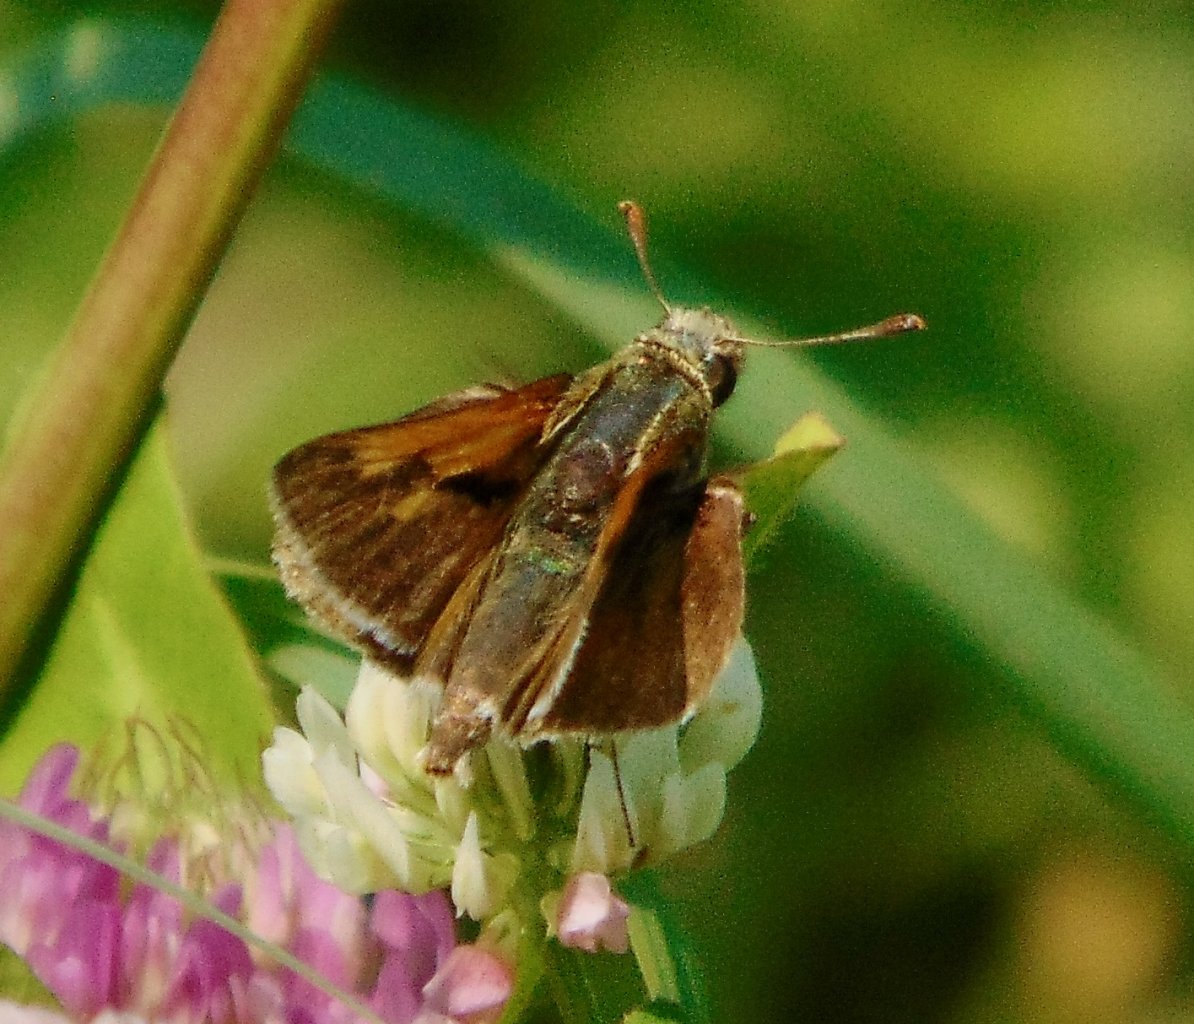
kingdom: Animalia
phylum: Arthropoda
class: Insecta
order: Lepidoptera
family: Hesperiidae
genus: Polites
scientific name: Polites themistocles
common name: Tawny-edged Skipper
